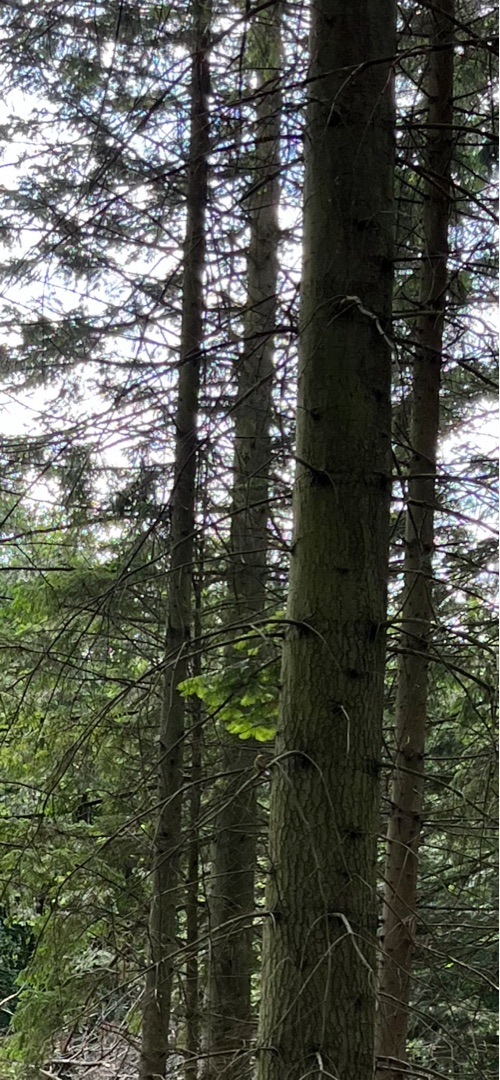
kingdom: Animalia
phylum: Chordata
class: Aves
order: Passeriformes
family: Emberizidae
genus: Emberiza
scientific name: Emberiza citrinella
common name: Gulspurv
